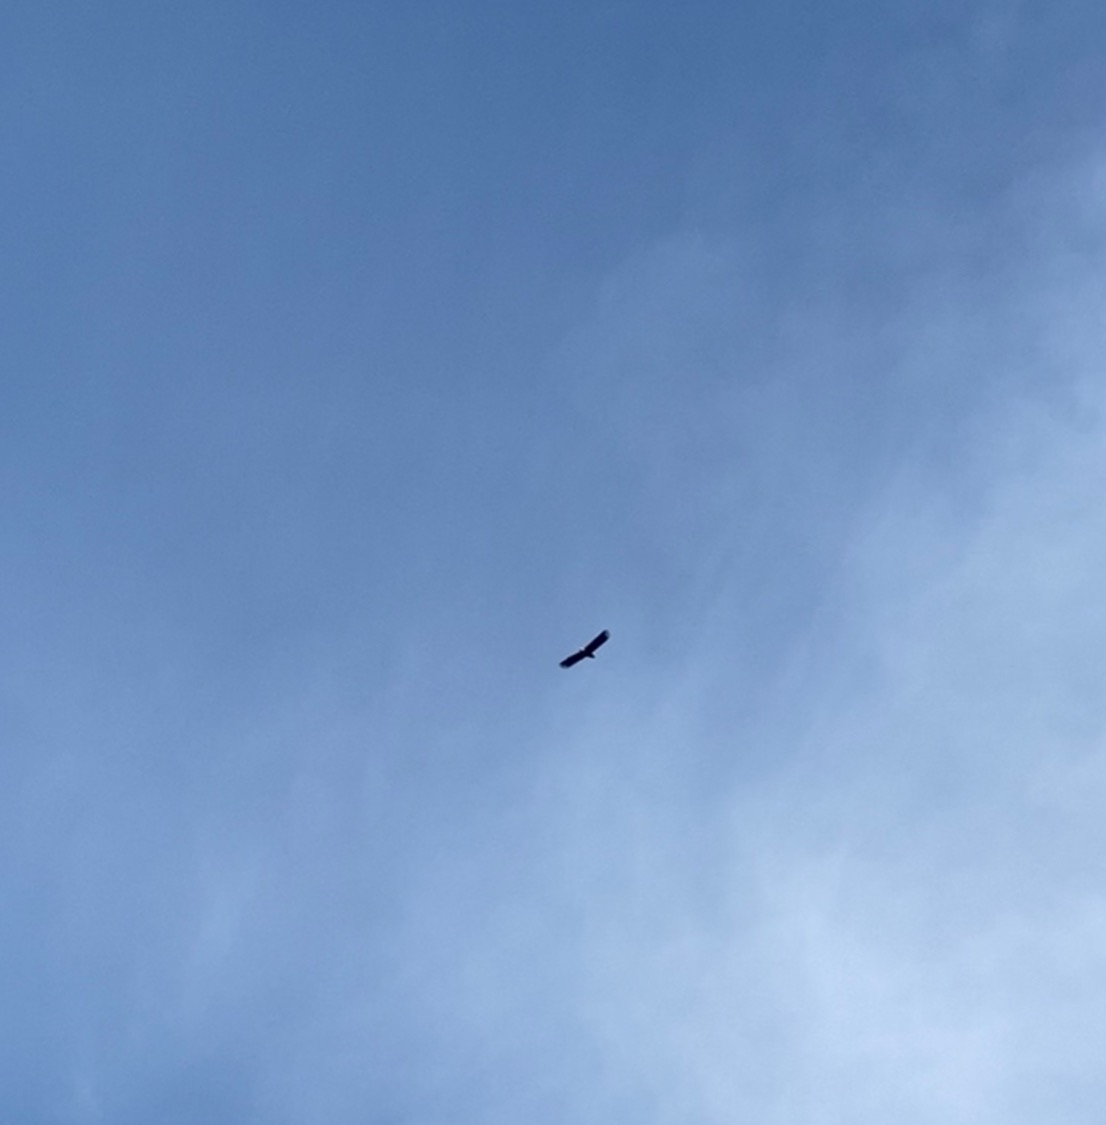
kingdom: Animalia
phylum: Chordata
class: Aves
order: Accipitriformes
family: Accipitridae
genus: Haliaeetus
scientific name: Haliaeetus albicilla
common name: Havørn
